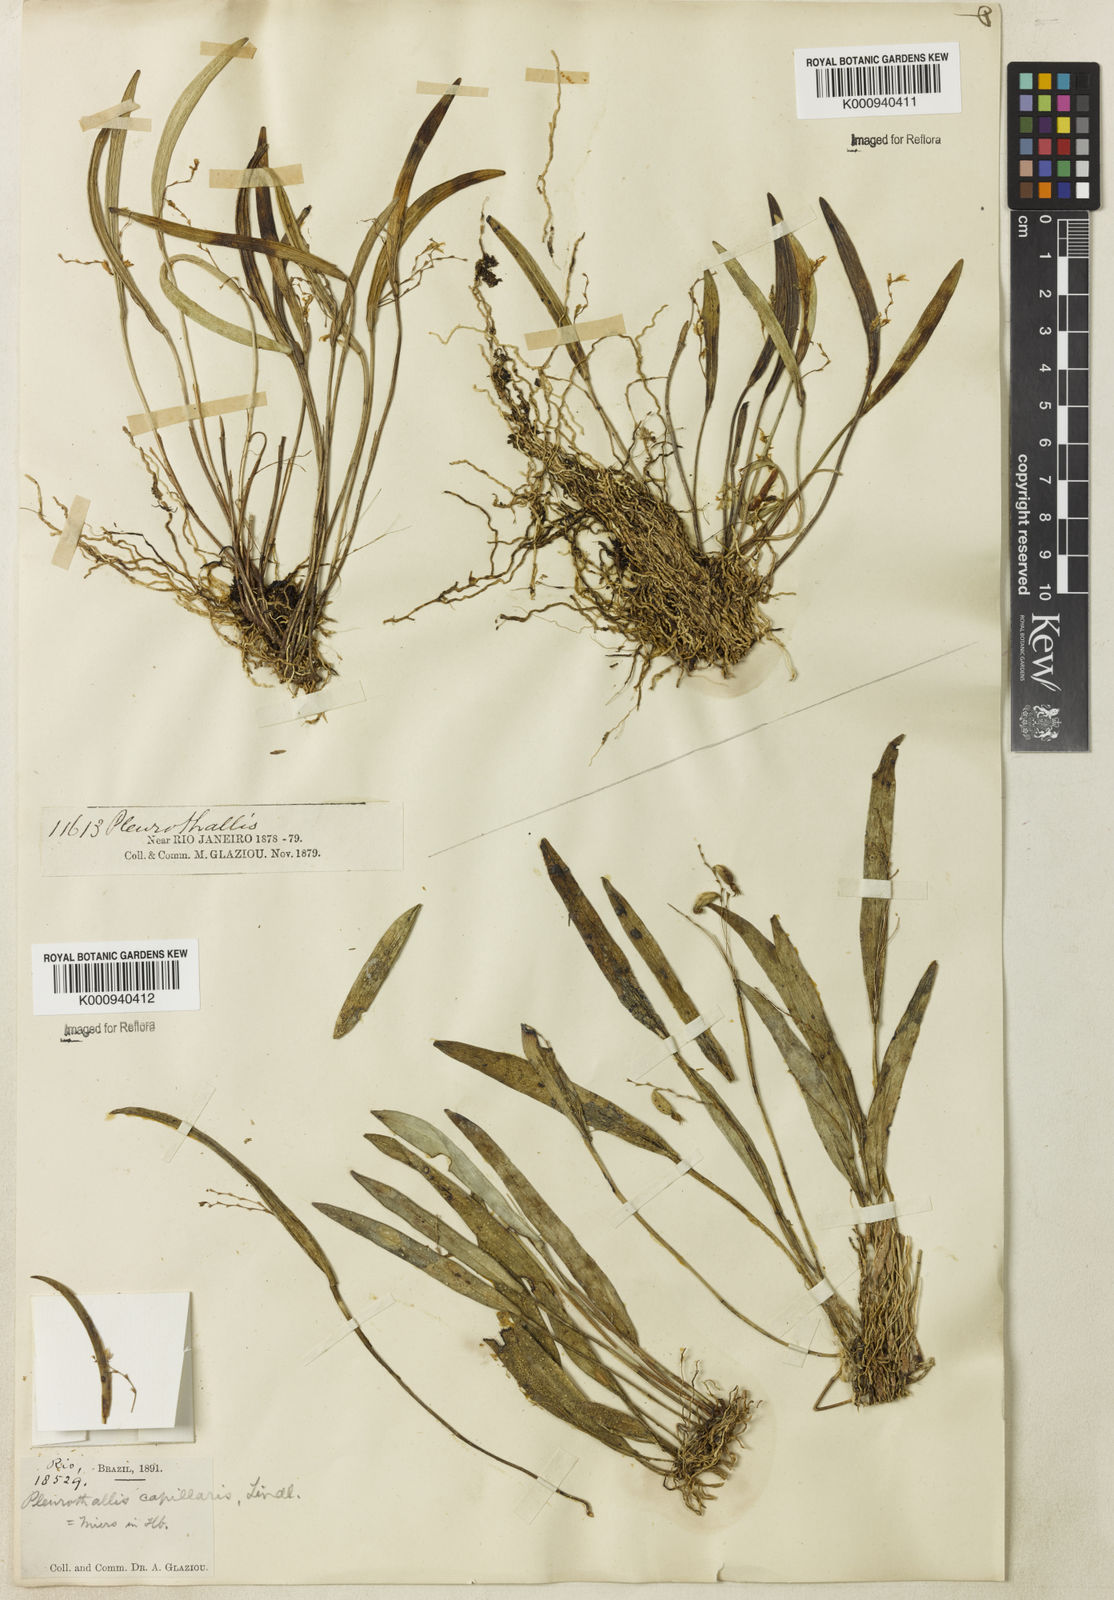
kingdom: Plantae
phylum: Tracheophyta
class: Liliopsida
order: Asparagales
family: Orchidaceae
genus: Acianthera
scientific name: Acianthera capillaris
